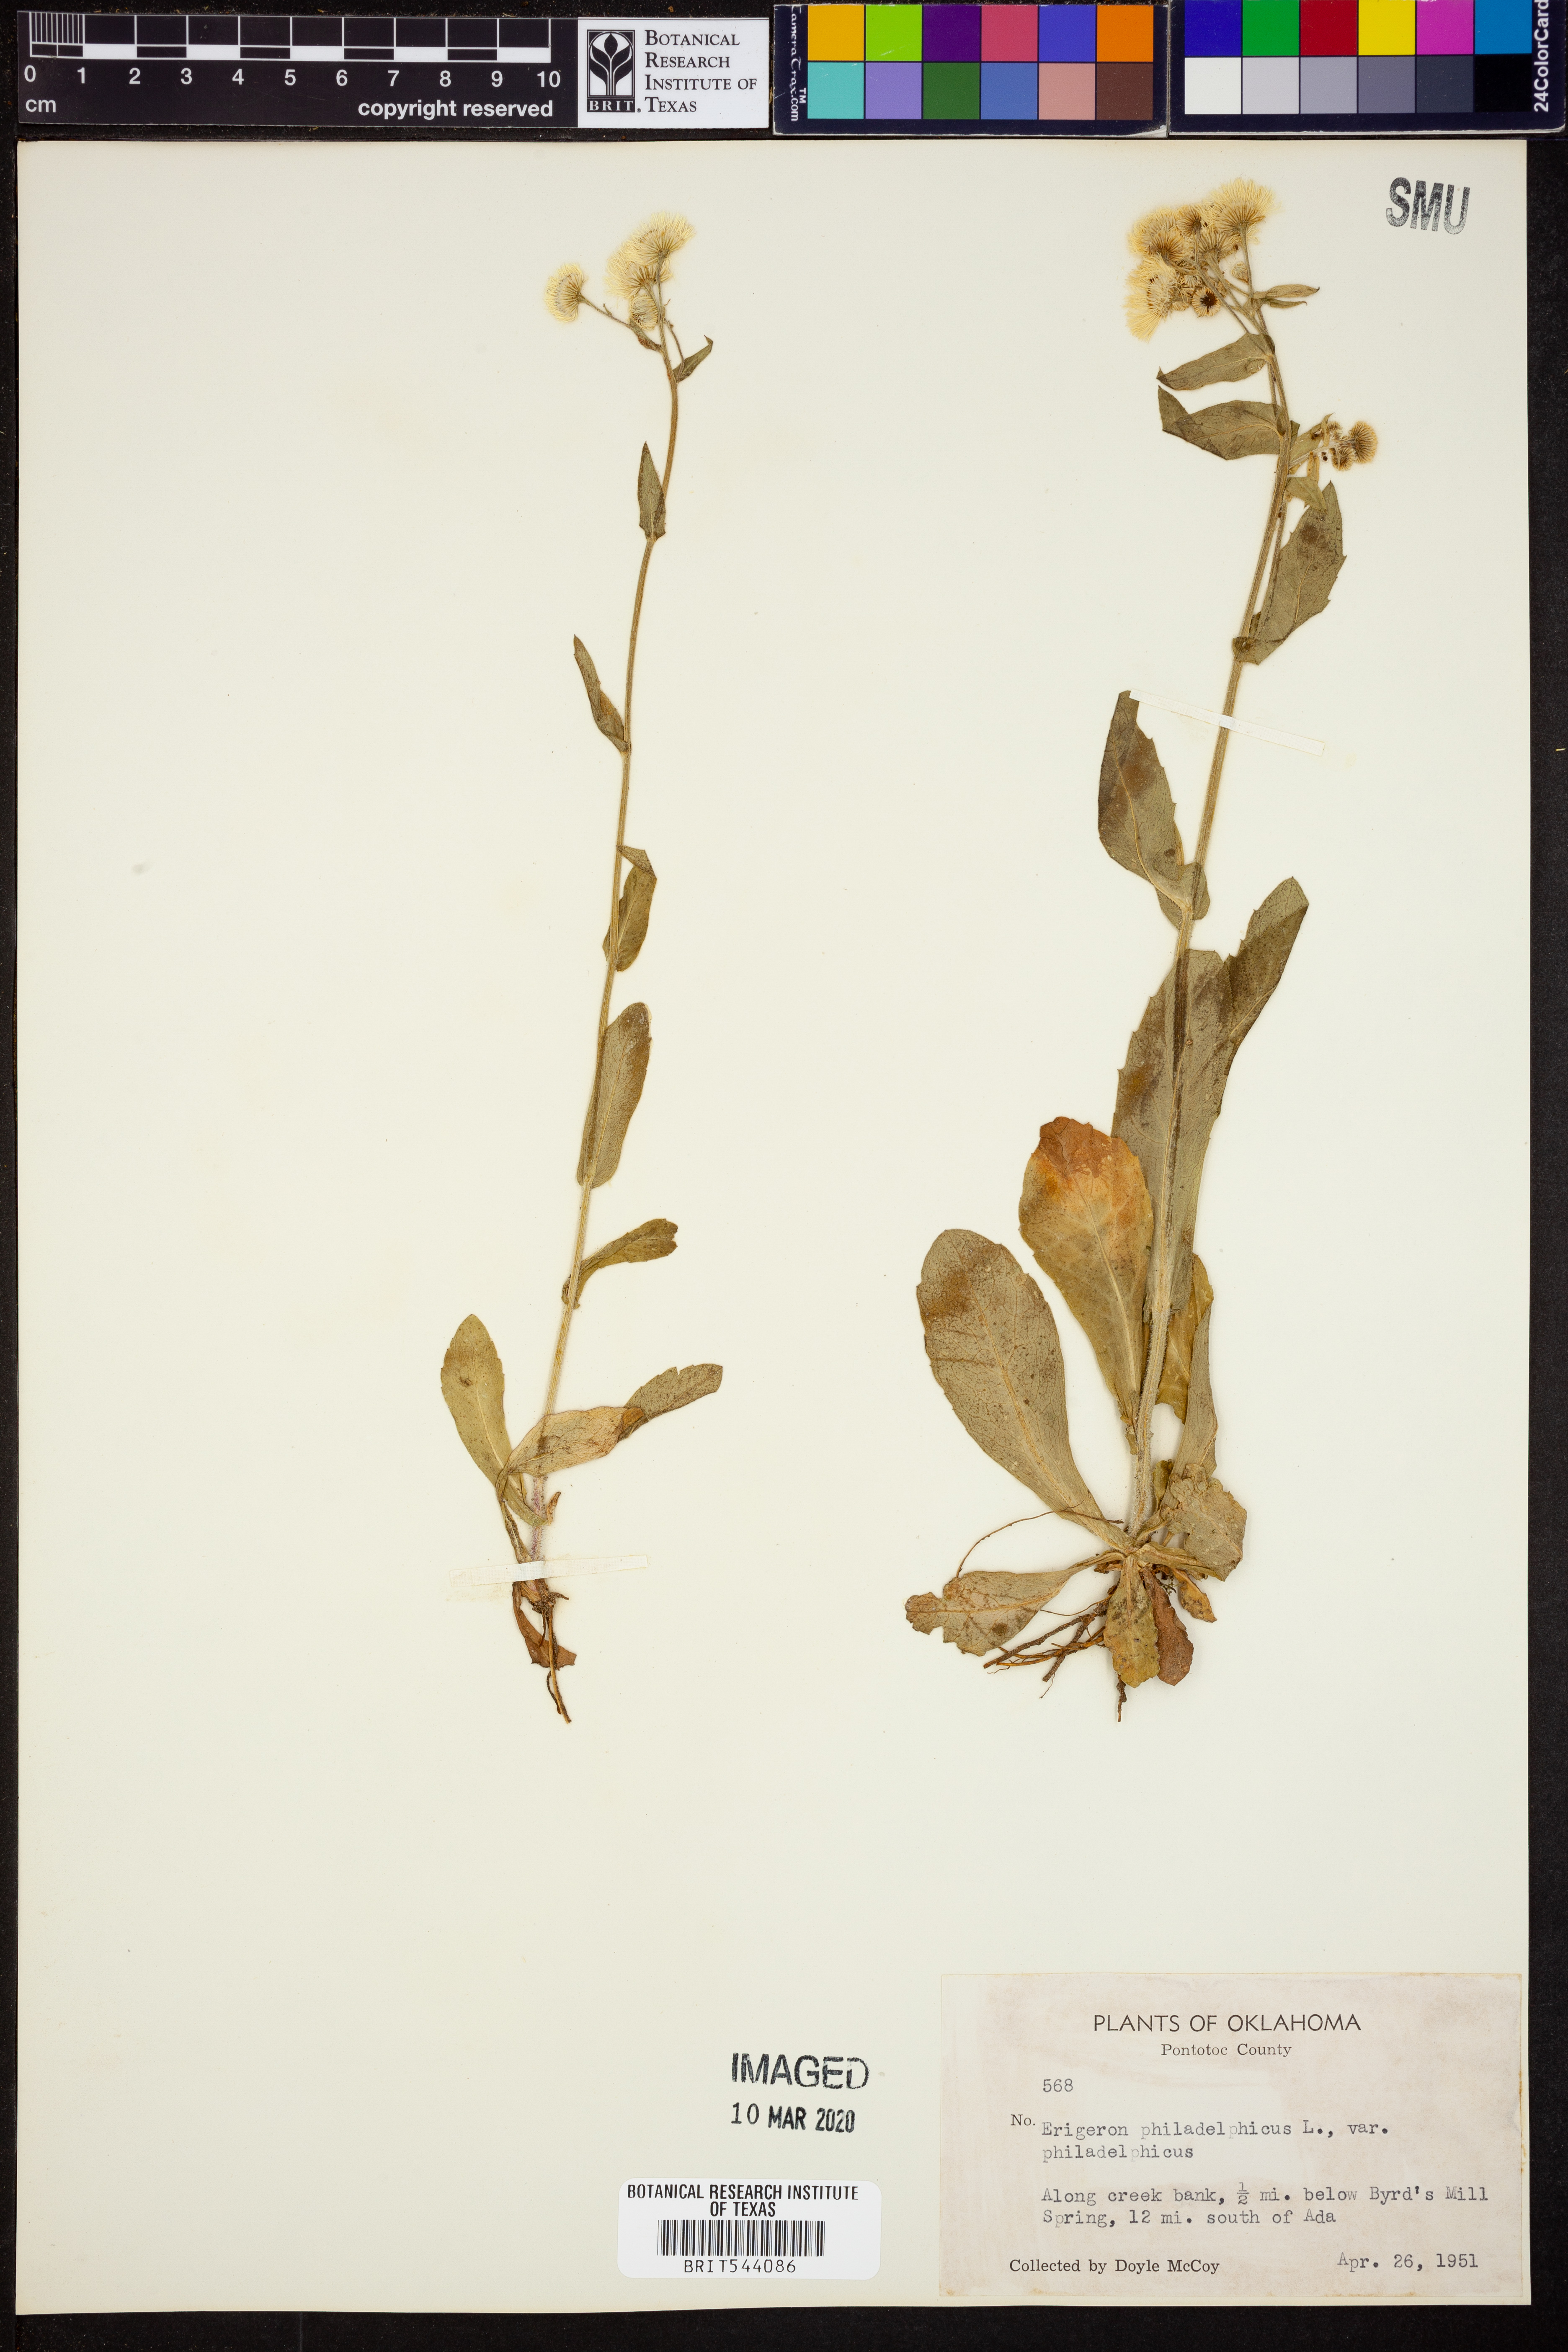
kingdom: Plantae
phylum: Tracheophyta
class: Magnoliopsida
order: Asterales
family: Asteraceae
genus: Erigeron
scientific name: Erigeron philadelphicus
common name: Robin's-plantain
